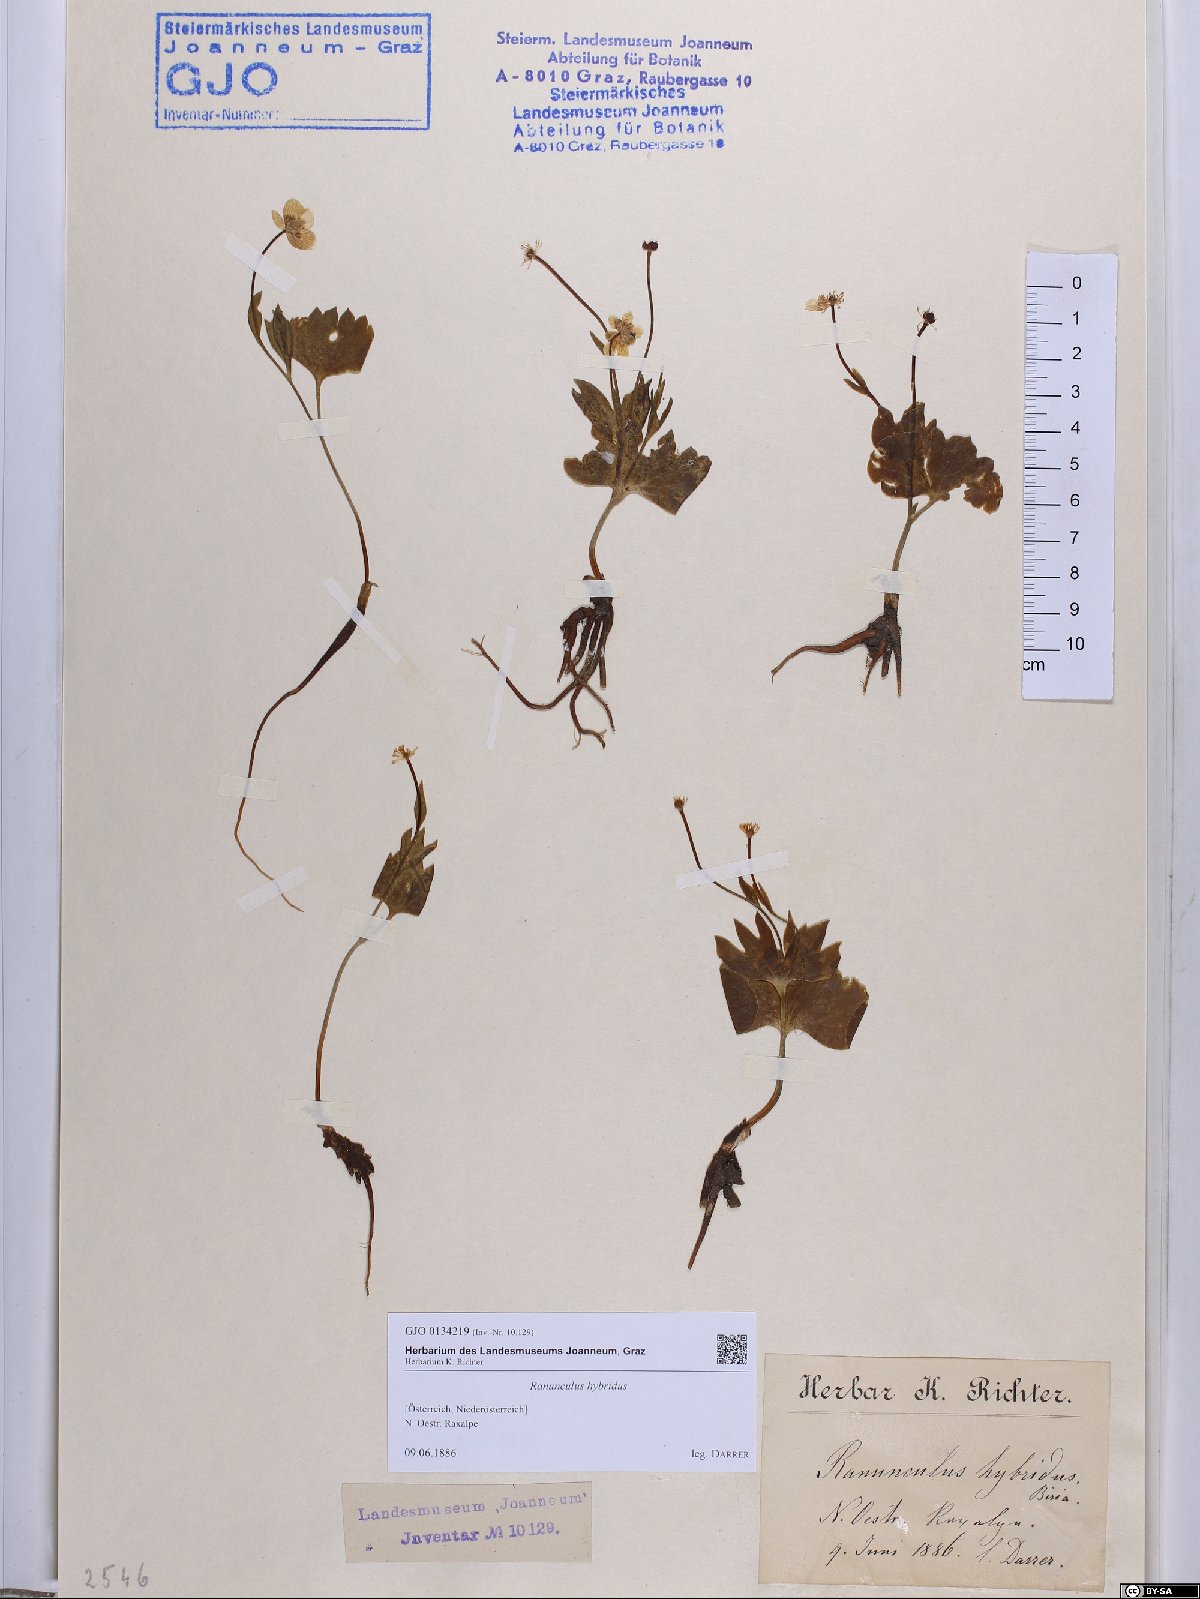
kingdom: Plantae
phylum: Tracheophyta
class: Magnoliopsida
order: Ranunculales
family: Ranunculaceae
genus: Ranunculus
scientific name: Ranunculus hybridus
